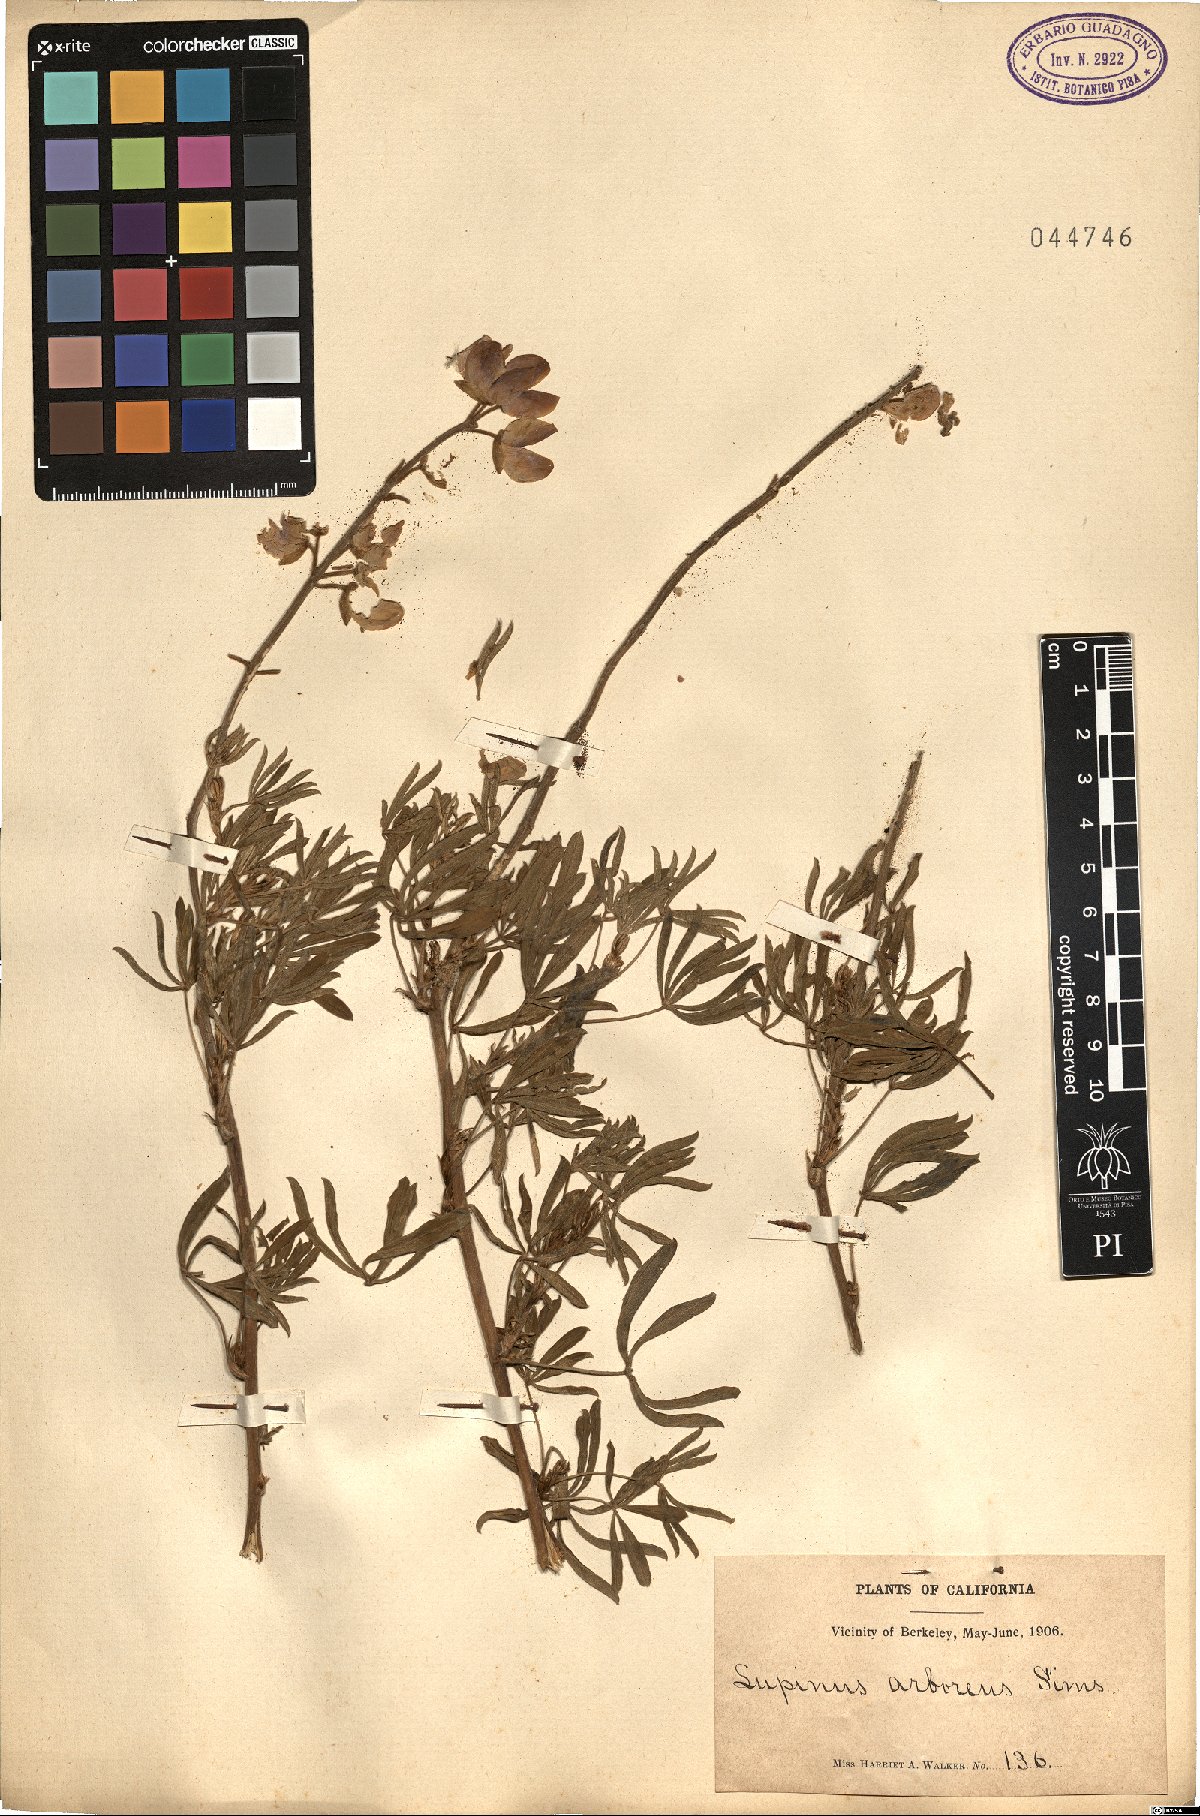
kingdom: Plantae
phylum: Tracheophyta
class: Magnoliopsida
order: Fabales
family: Fabaceae
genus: Lupinus
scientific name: Lupinus arboreus
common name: Yellow bush lupine
